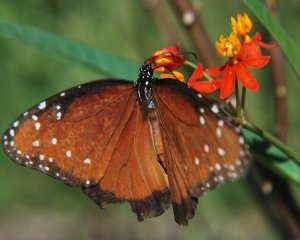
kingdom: Animalia
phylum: Arthropoda
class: Insecta
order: Lepidoptera
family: Nymphalidae
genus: Danaus
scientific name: Danaus gilippus
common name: Queen
